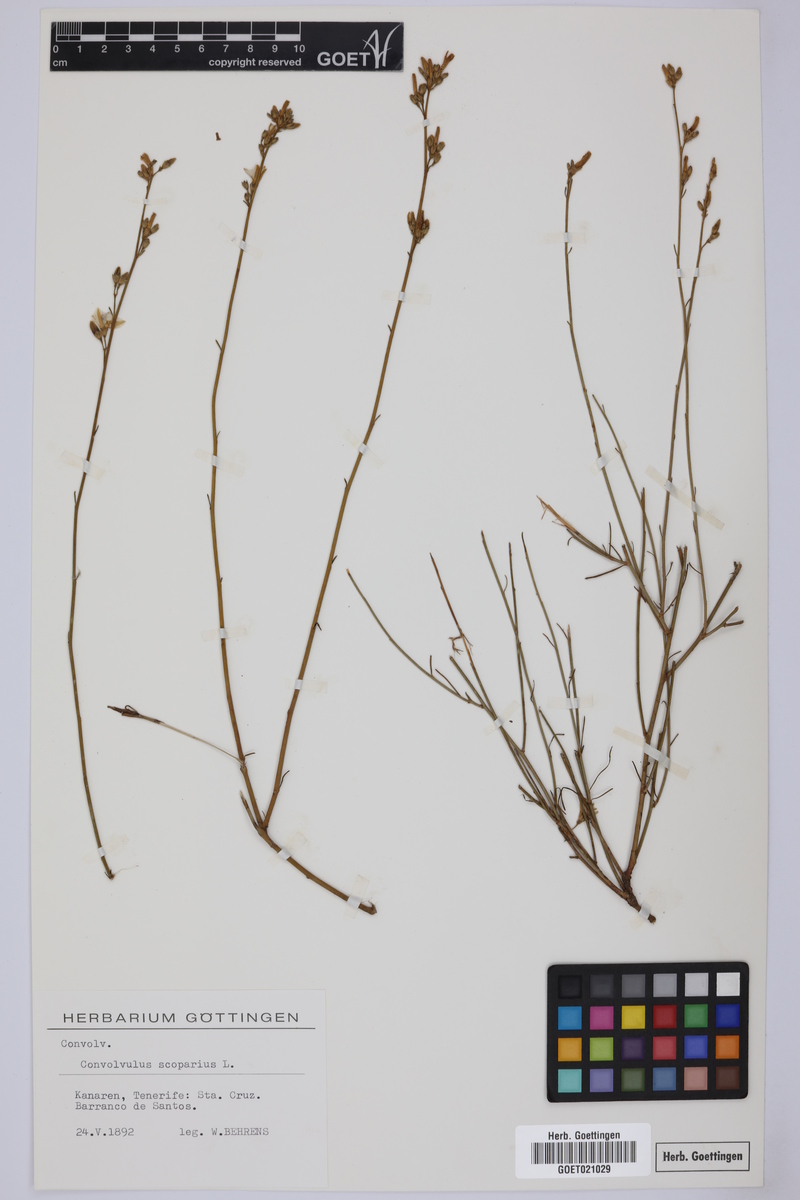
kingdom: Plantae
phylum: Tracheophyta
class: Magnoliopsida
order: Solanales
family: Convolvulaceae
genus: Convolvulus
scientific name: Convolvulus scoparius
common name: Lignum rhodium
